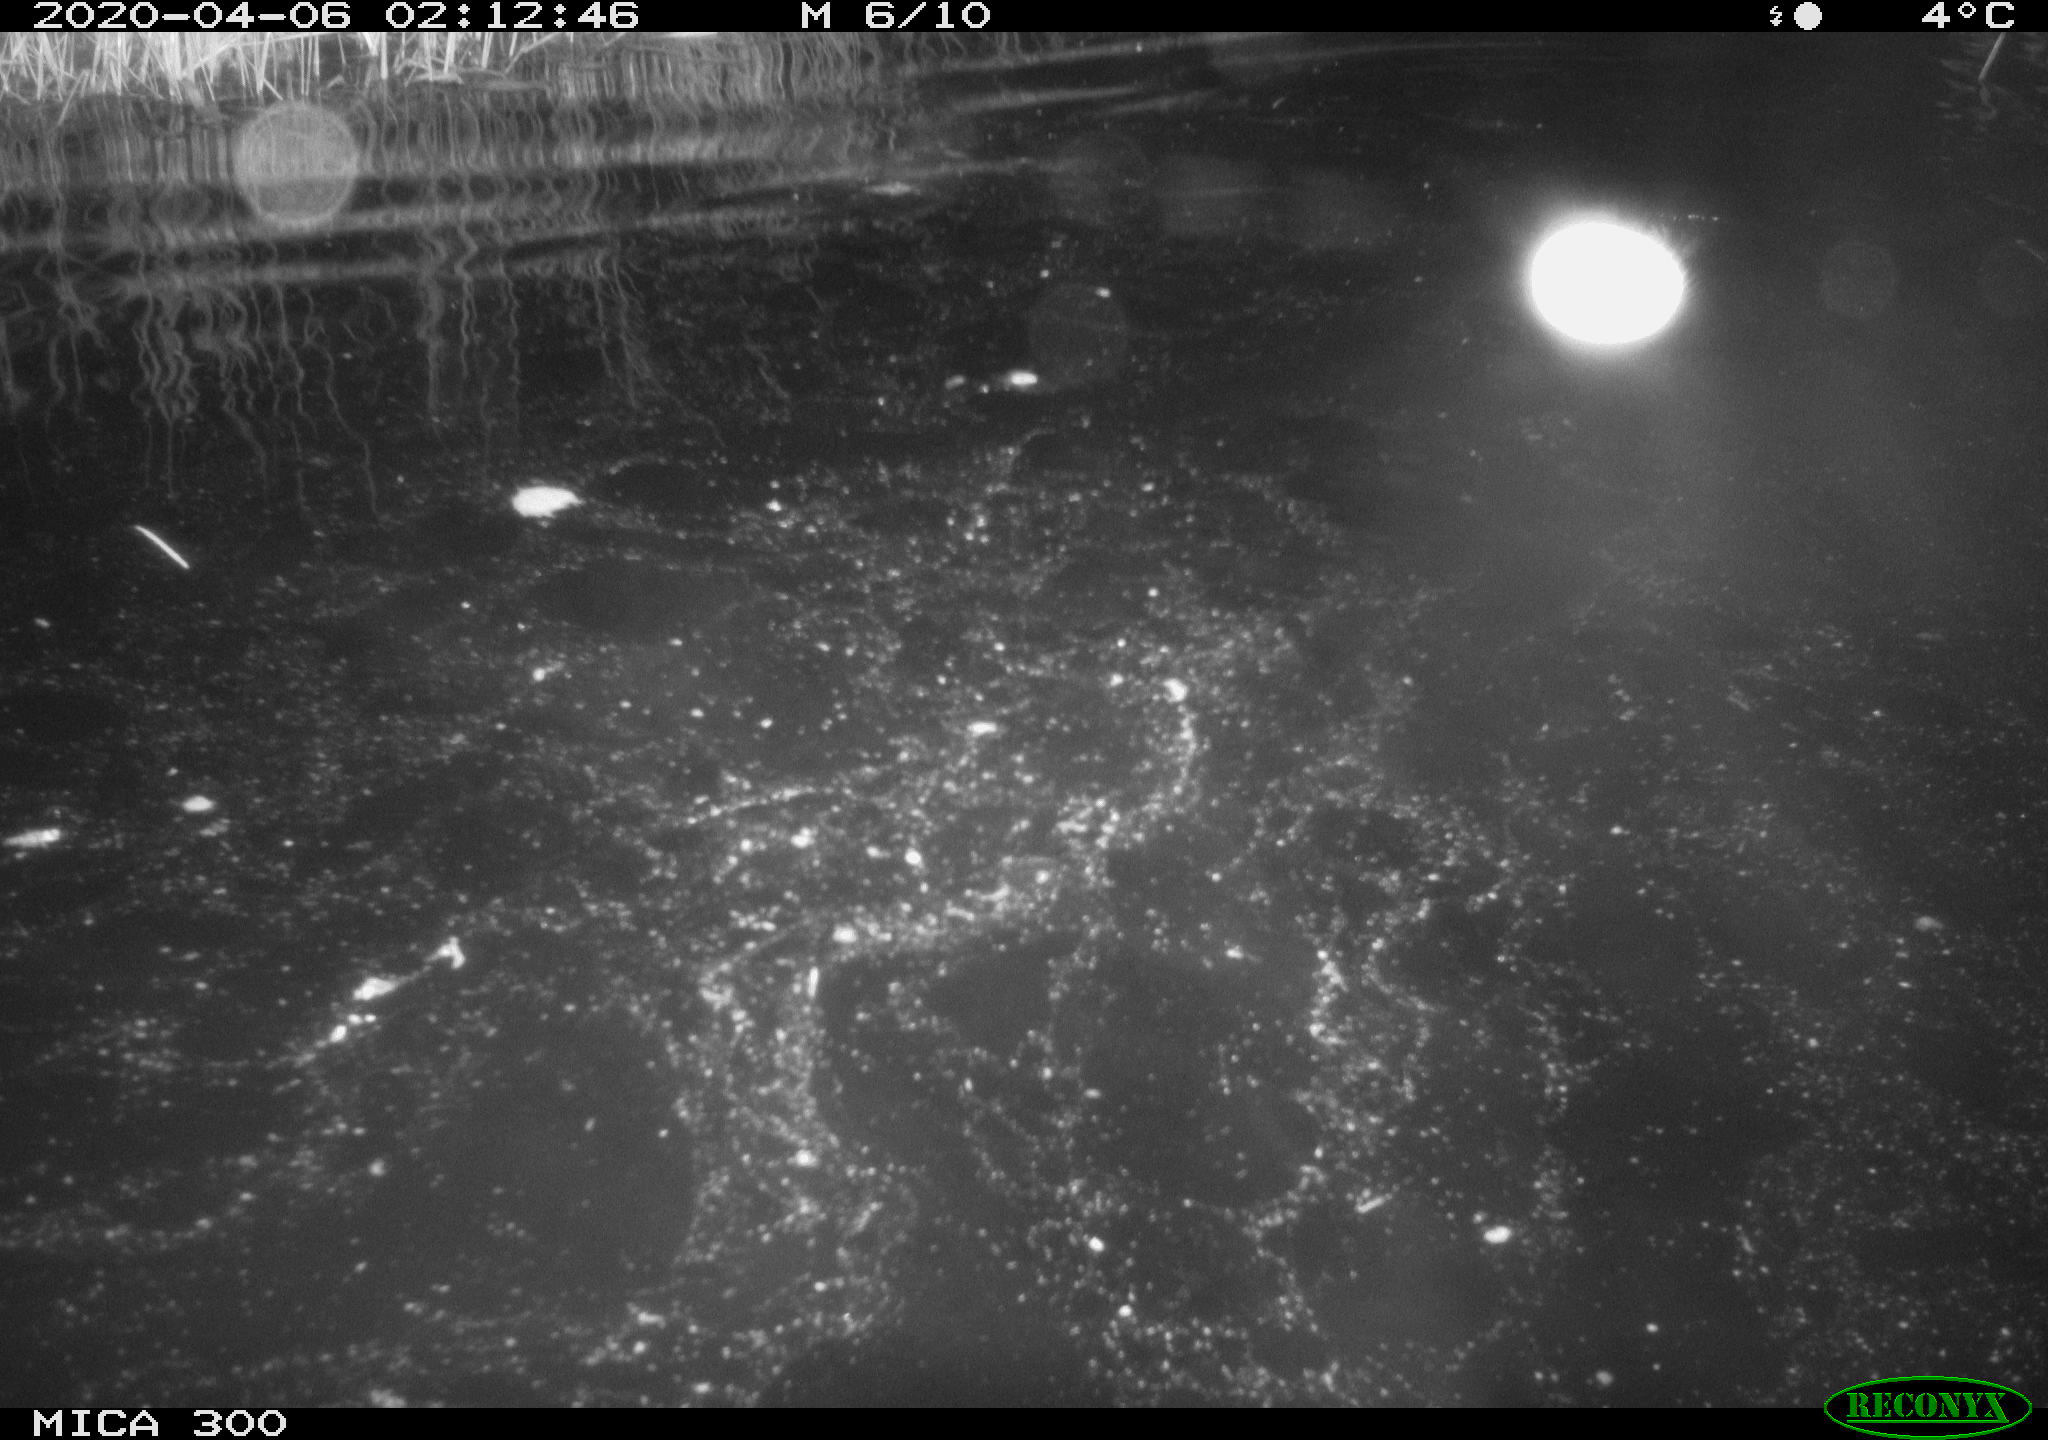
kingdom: Animalia
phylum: Chordata
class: Mammalia
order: Rodentia
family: Castoridae
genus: Castor
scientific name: Castor fiber
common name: Eurasian beaver
